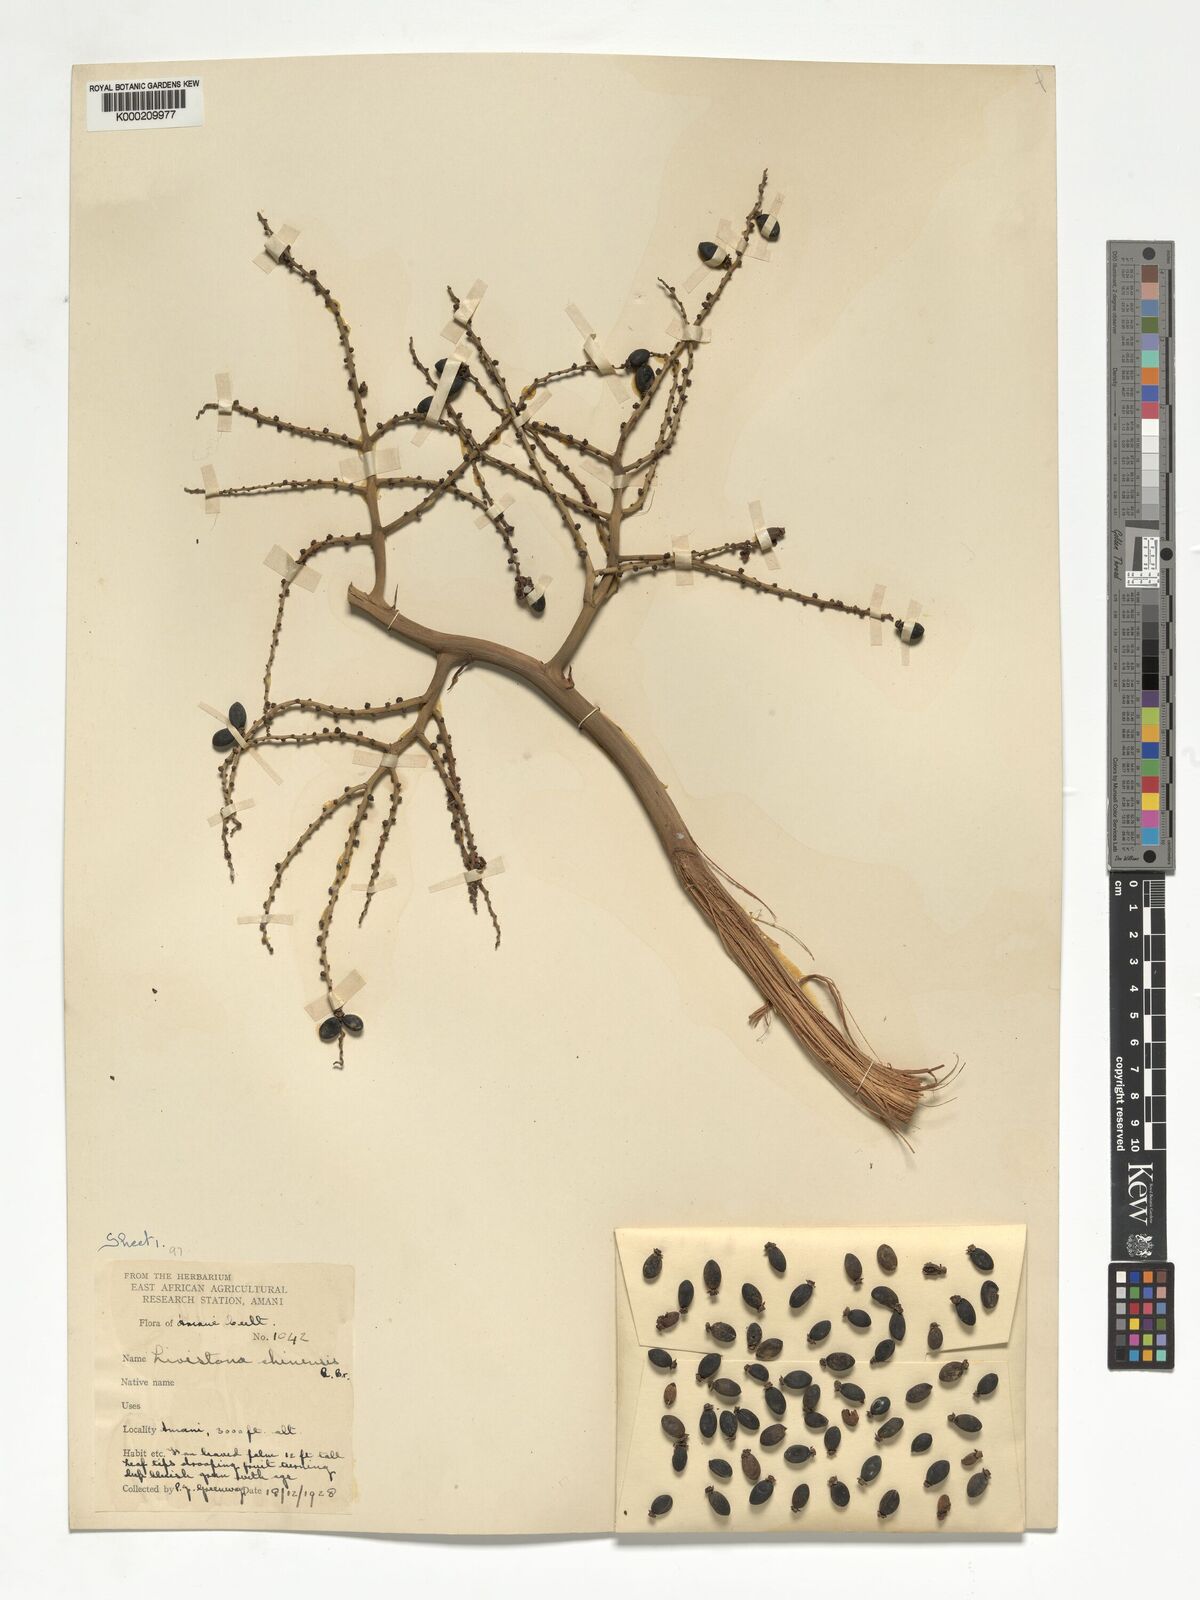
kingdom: Plantae
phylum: Tracheophyta
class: Liliopsida
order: Arecales
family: Arecaceae
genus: Livistona
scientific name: Livistona chinensis
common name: Fountain palm
